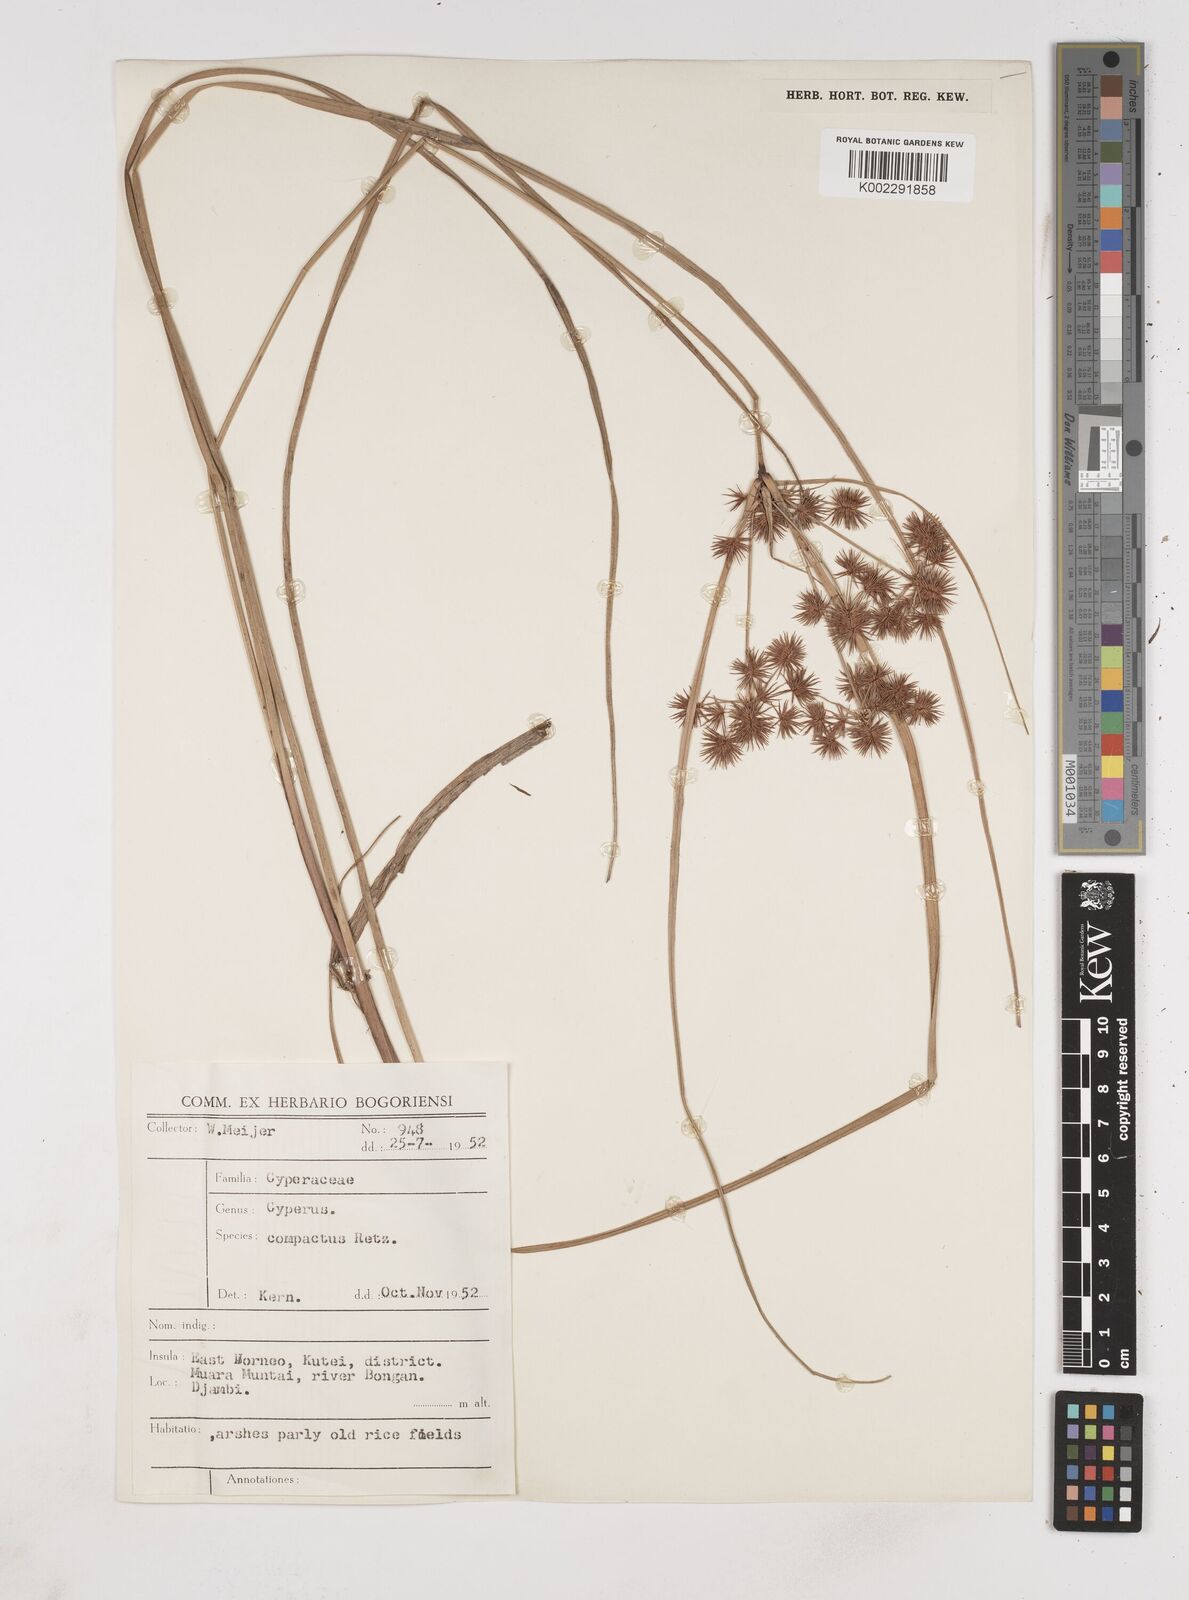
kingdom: Plantae
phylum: Tracheophyta
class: Liliopsida
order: Poales
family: Cyperaceae
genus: Cyperus
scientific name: Cyperus compactus
